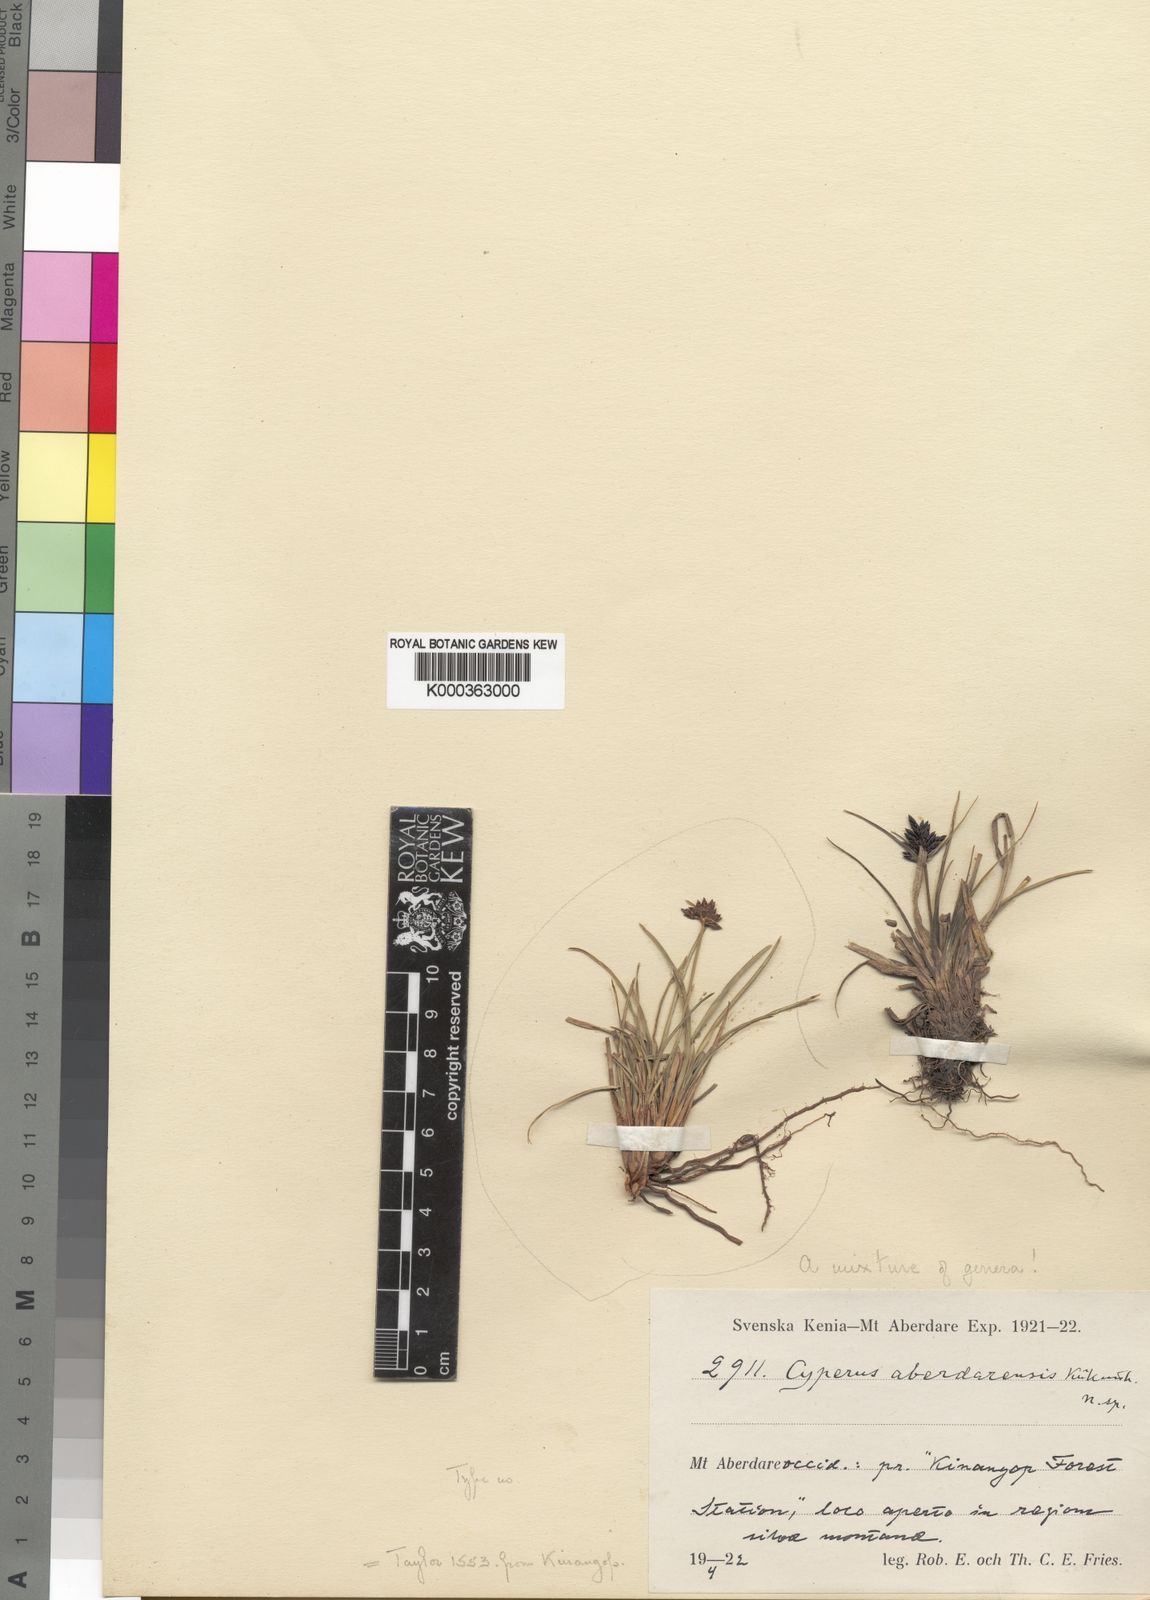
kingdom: Plantae
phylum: Tracheophyta
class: Liliopsida
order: Poales
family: Cyperaceae
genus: Cyperus
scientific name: Cyperus aethiops
